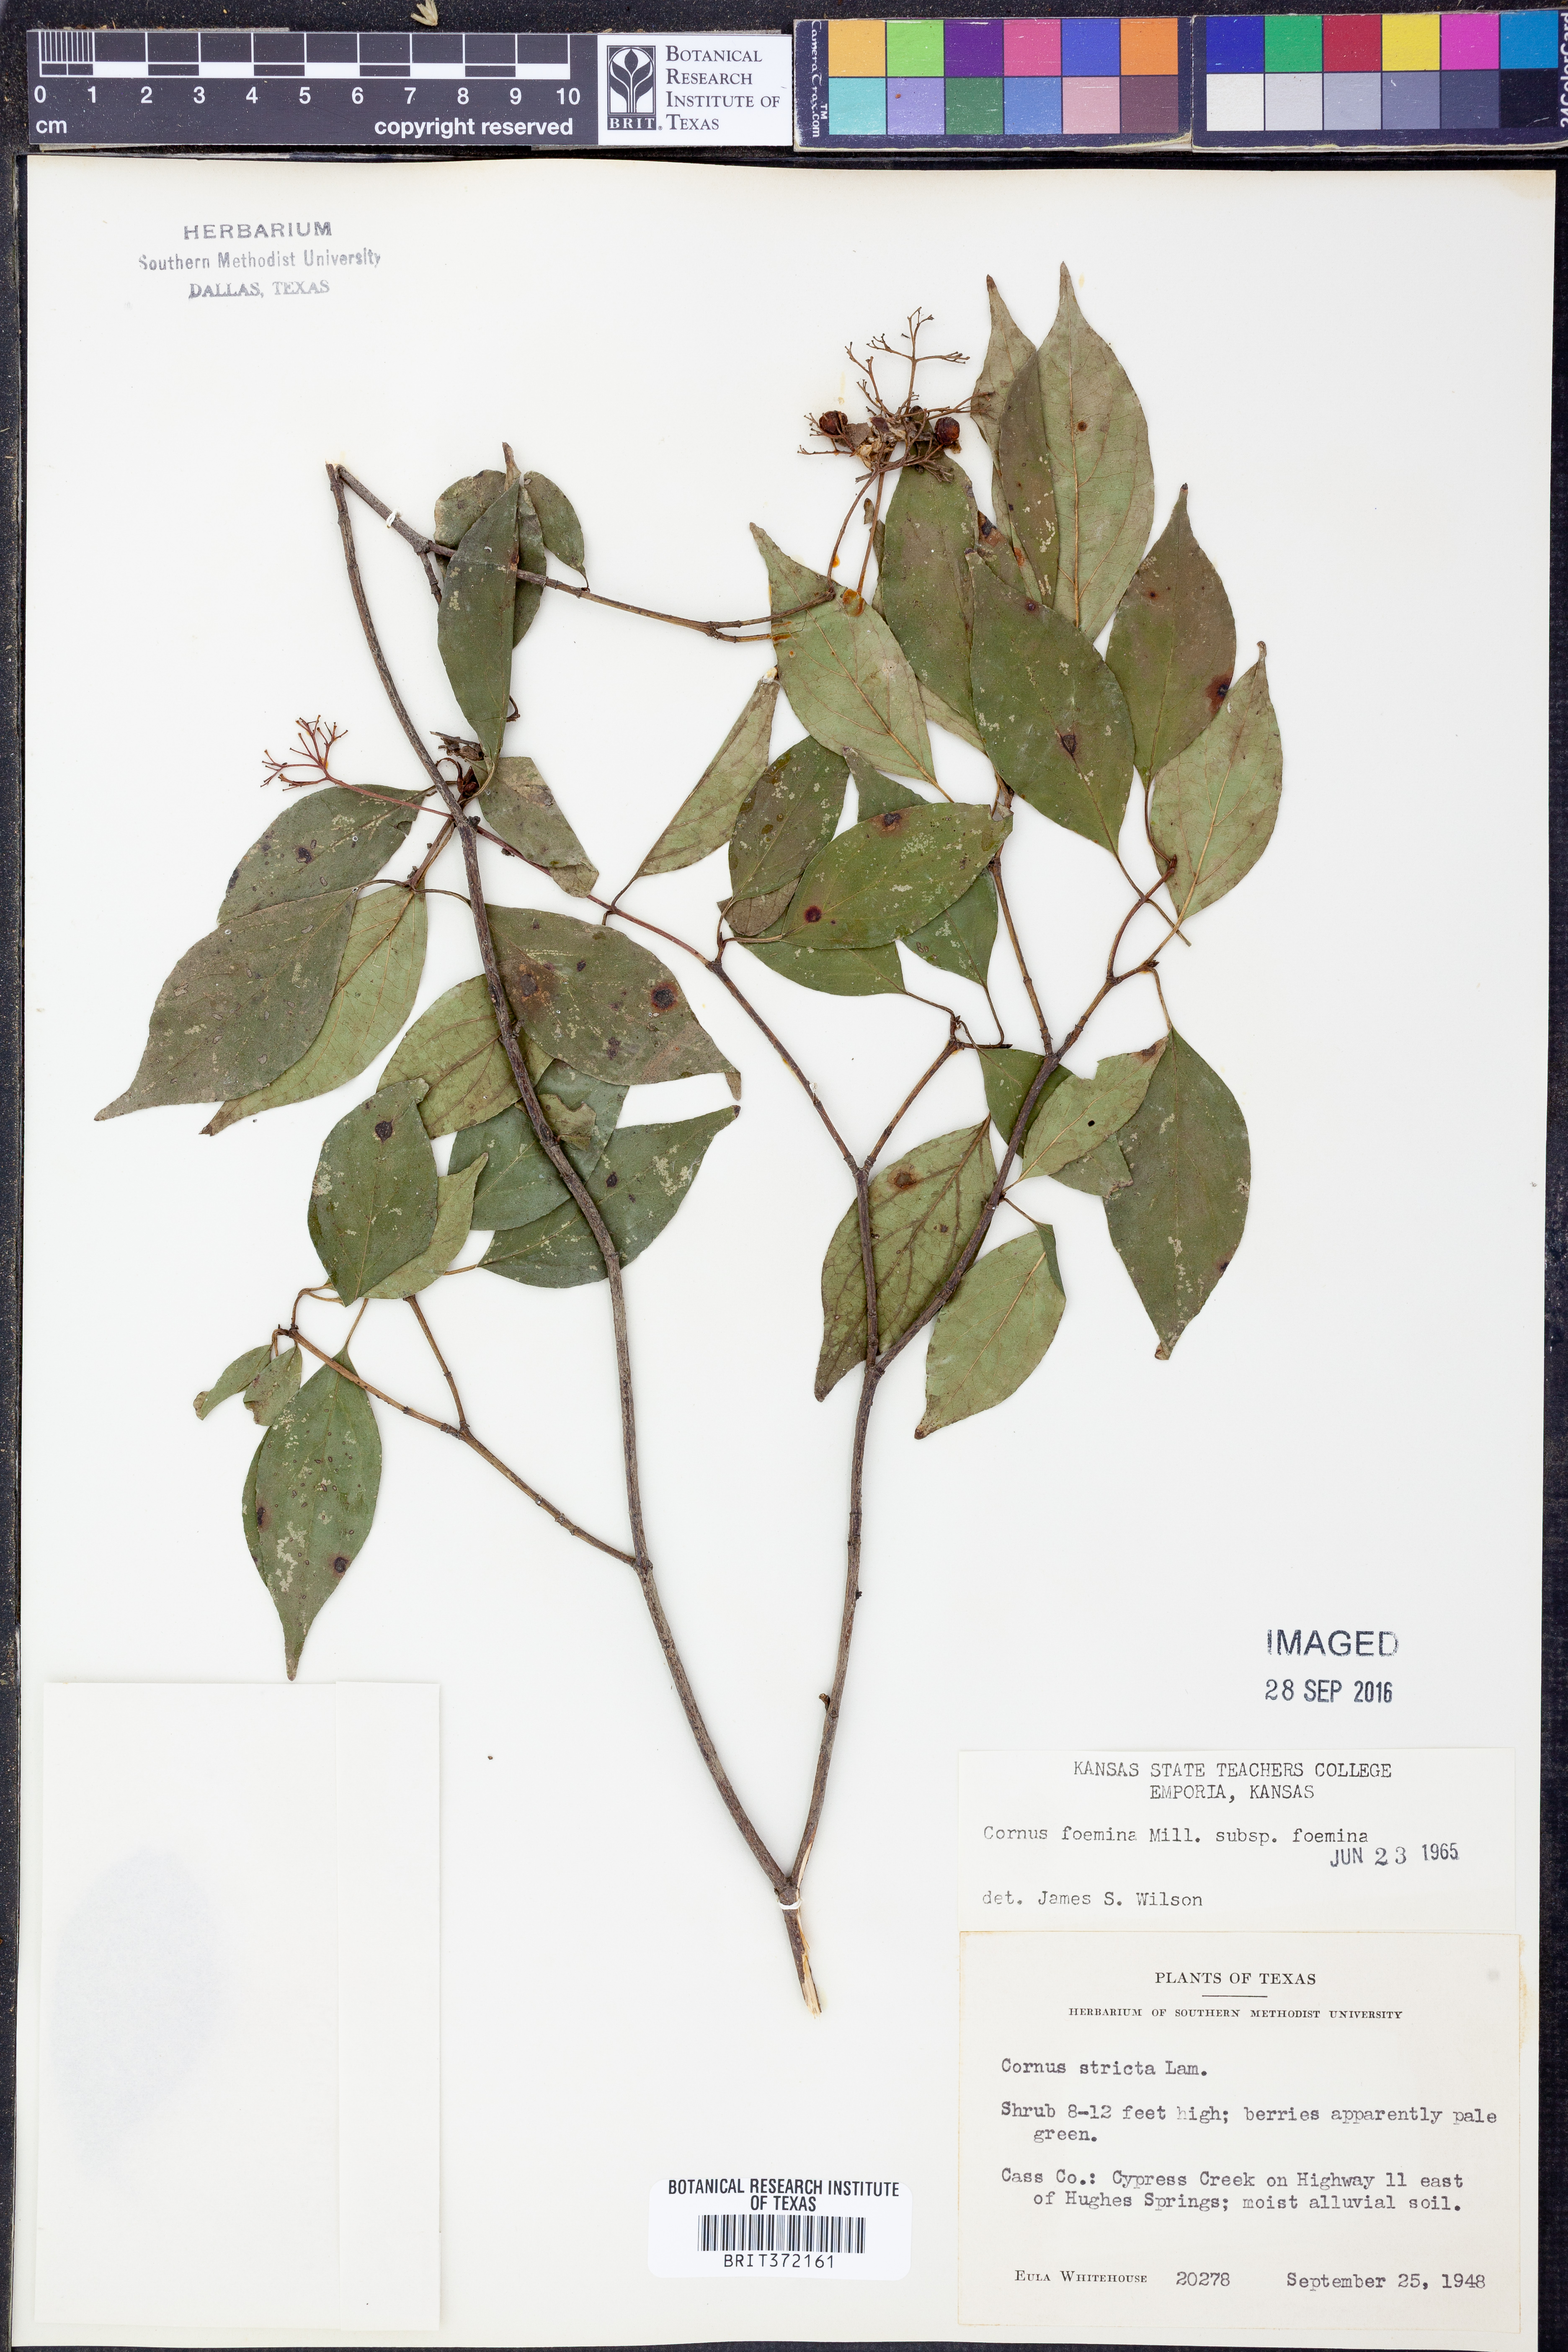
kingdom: Plantae
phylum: Tracheophyta
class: Magnoliopsida
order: Cornales
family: Cornaceae
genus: Cornus
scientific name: Cornus foemina
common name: Swamp dogwood
